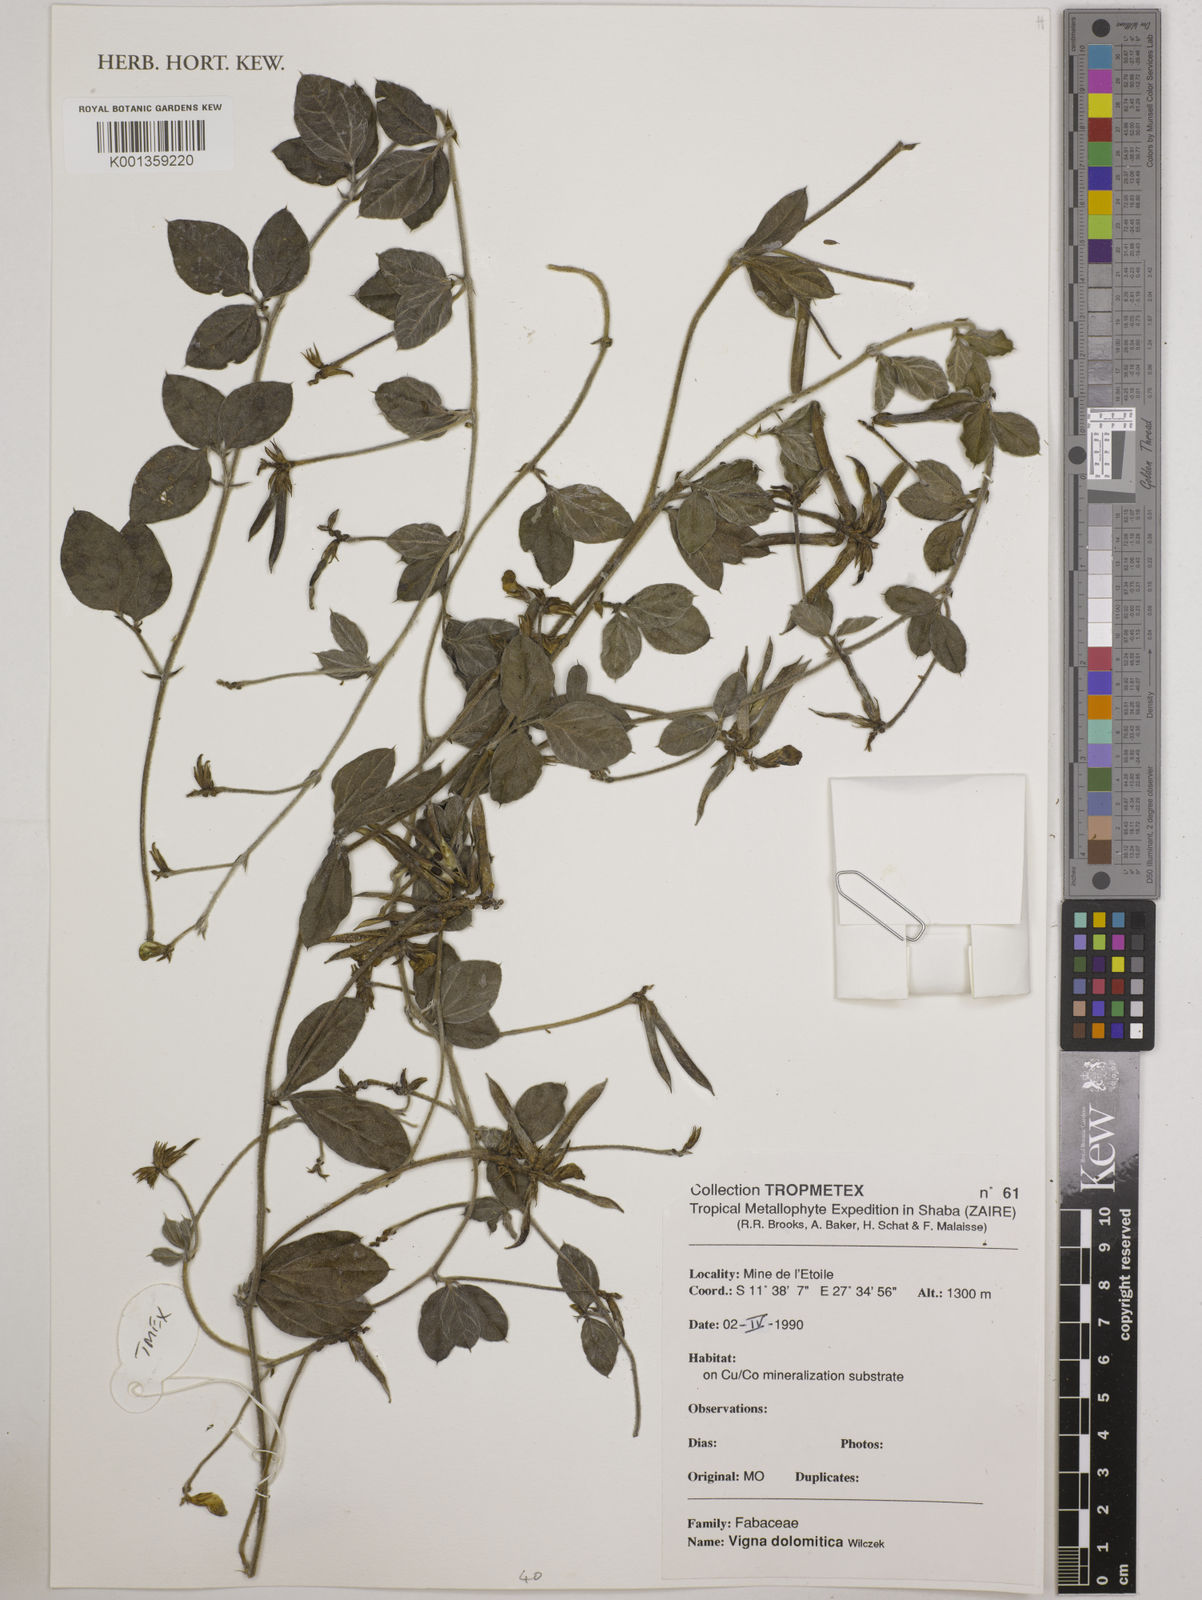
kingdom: Plantae
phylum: Tracheophyta
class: Magnoliopsida
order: Fabales
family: Fabaceae
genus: Vigna
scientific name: Vigna dolomitica
